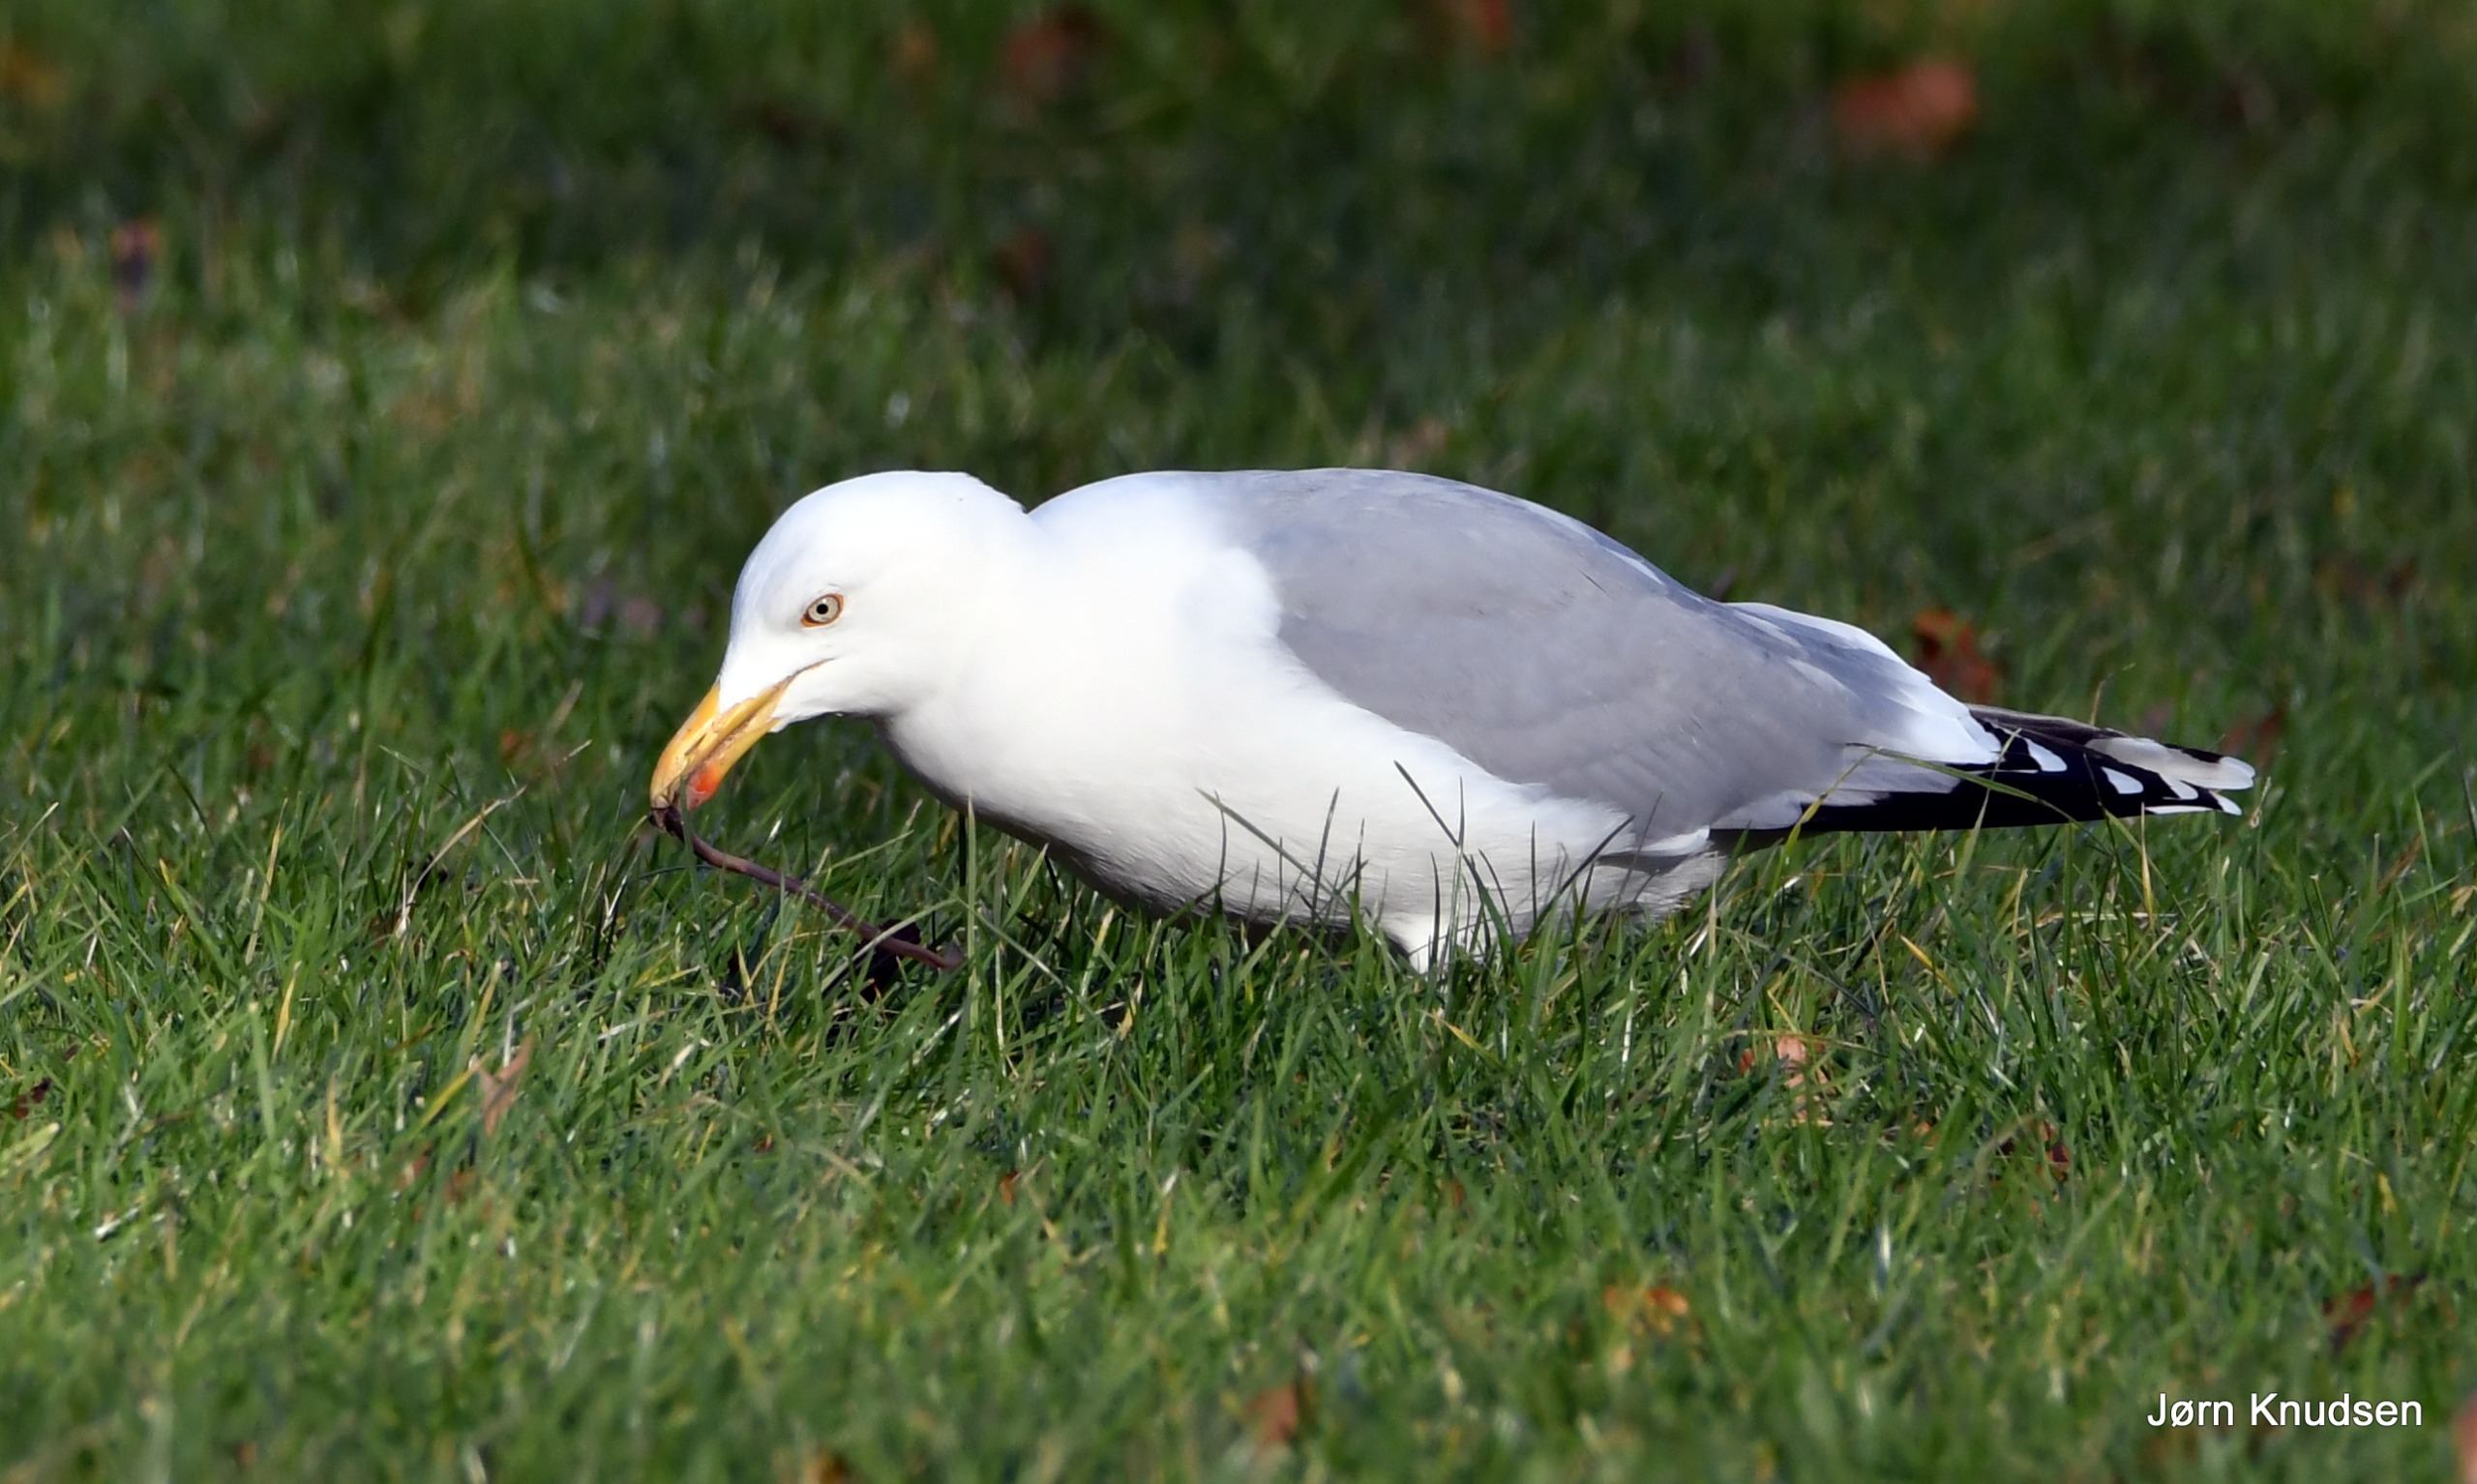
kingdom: Animalia
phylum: Chordata
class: Aves
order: Charadriiformes
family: Laridae
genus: Larus
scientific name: Larus argentatus
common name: Sølvmåge
